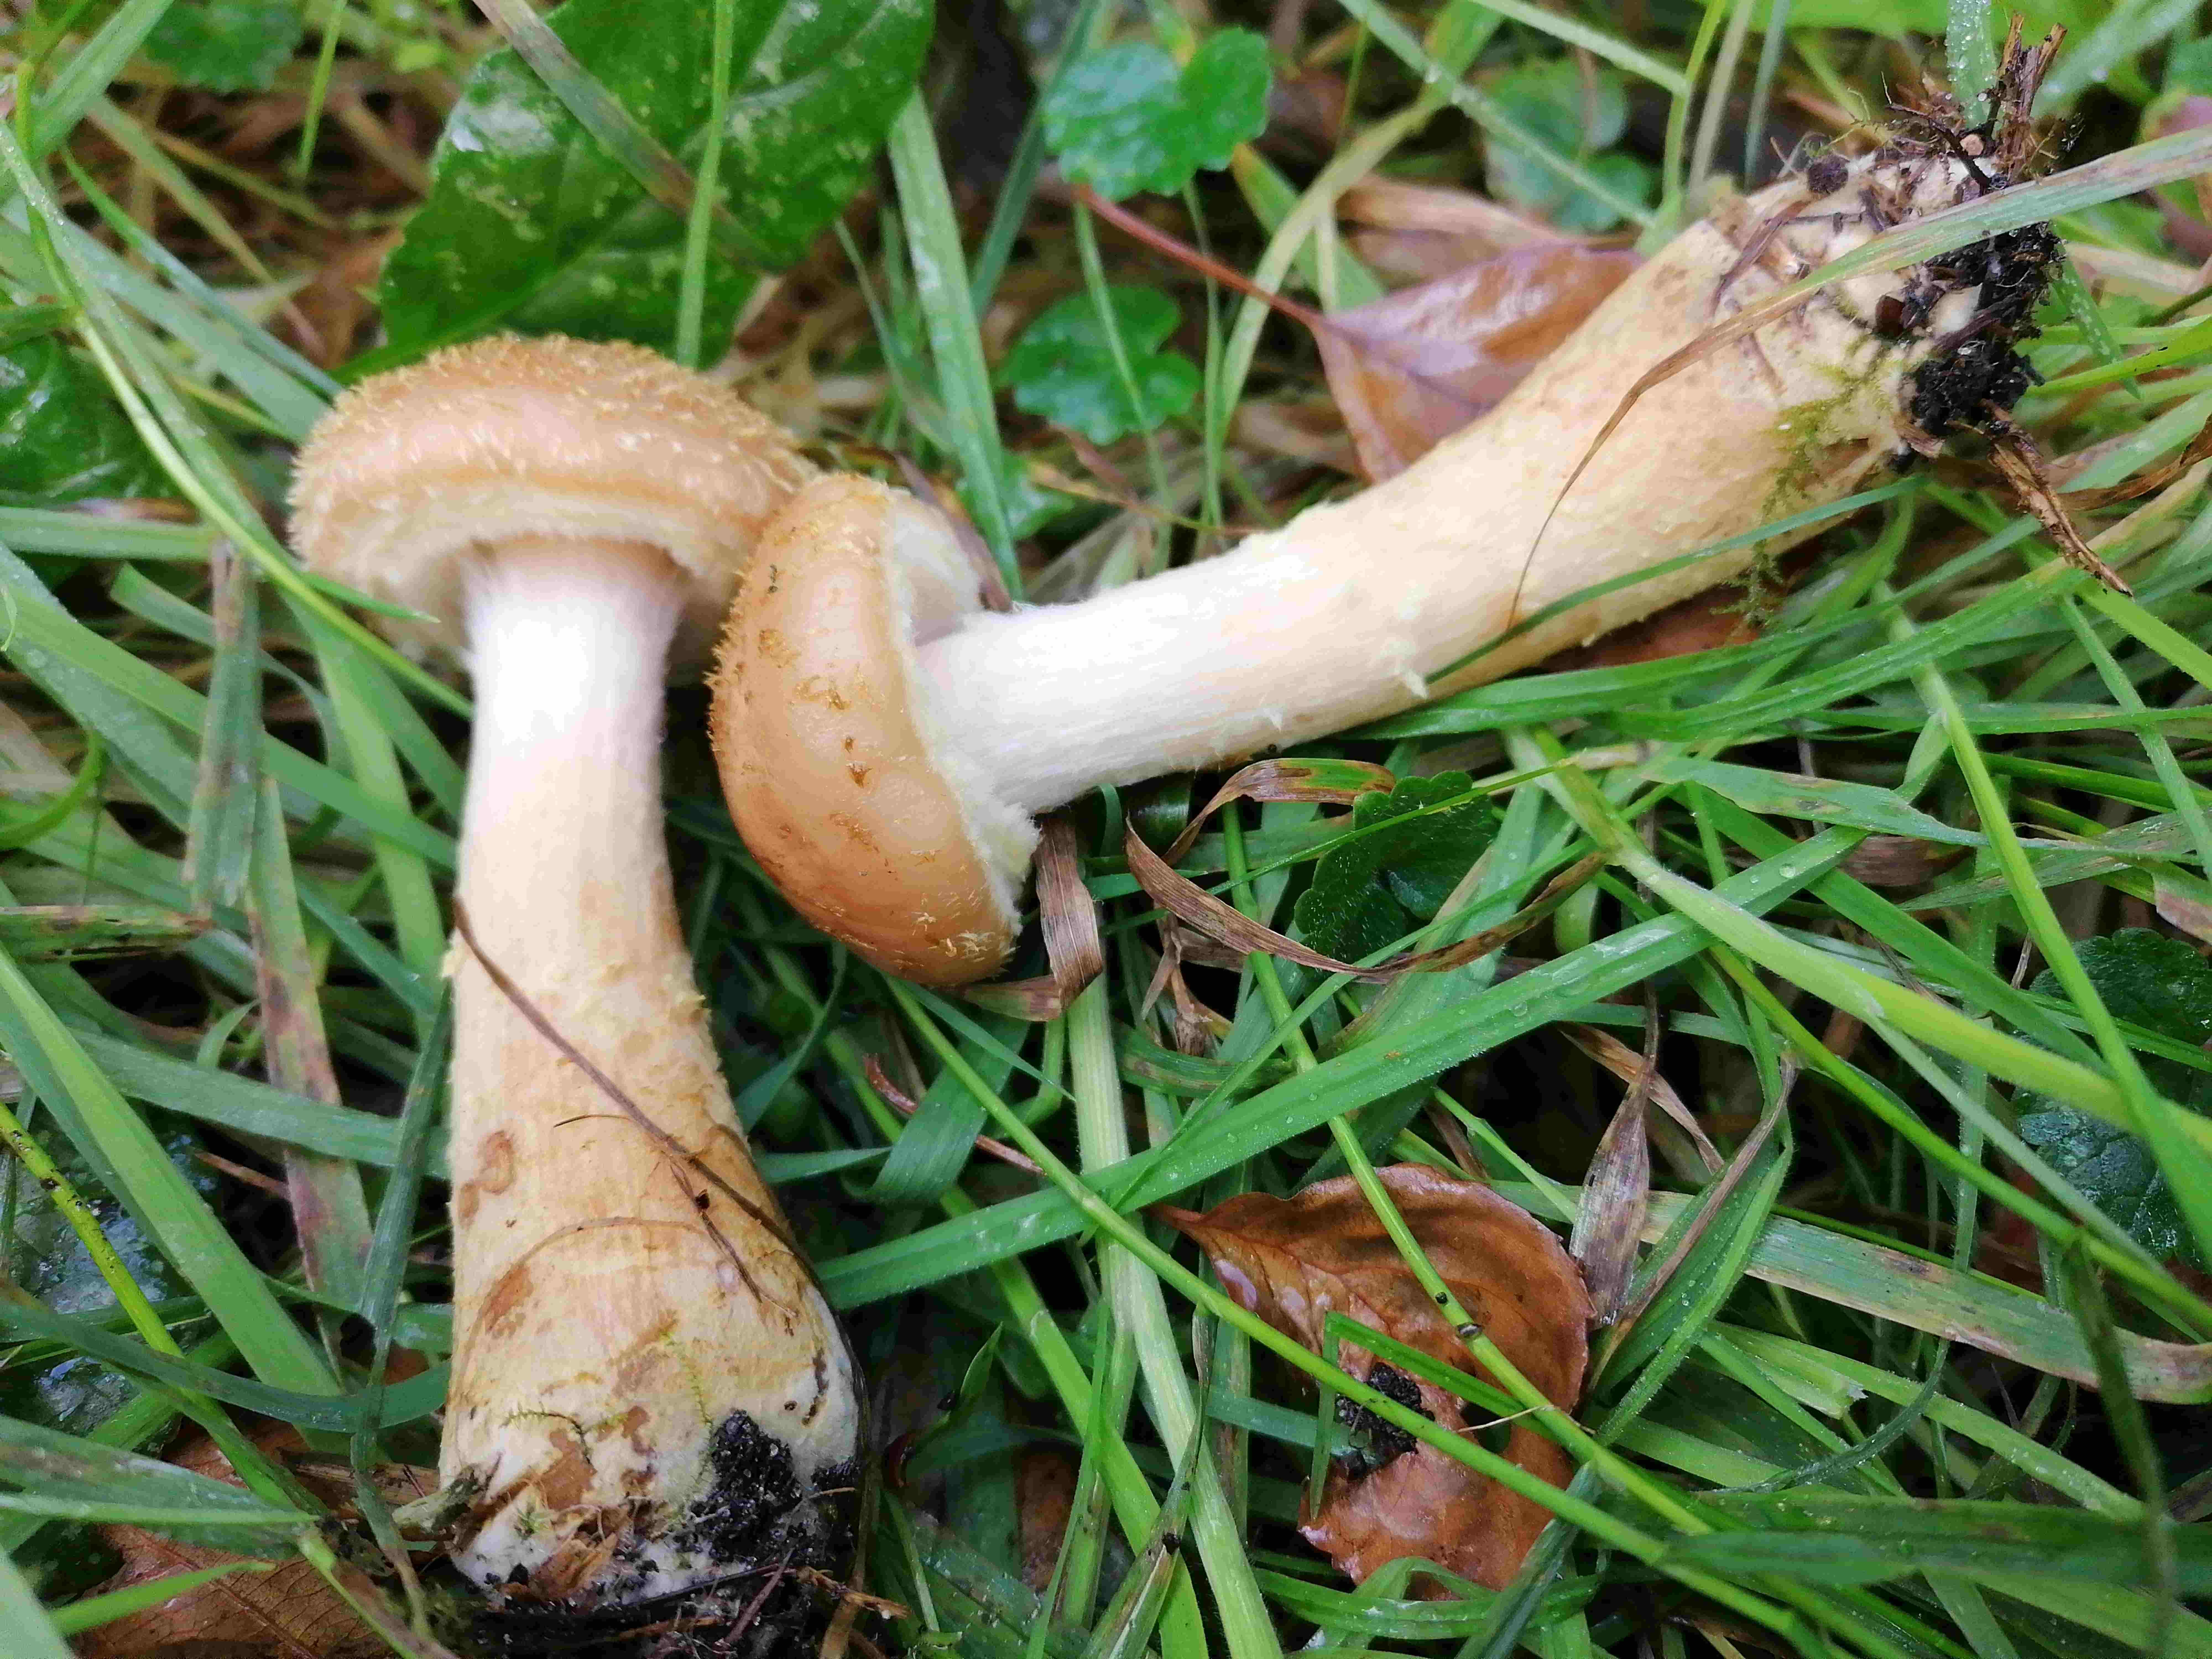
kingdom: Fungi
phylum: Basidiomycota
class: Agaricomycetes
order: Agaricales
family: Physalacriaceae
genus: Armillaria
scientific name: Armillaria lutea
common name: køllestokket honningsvamp
